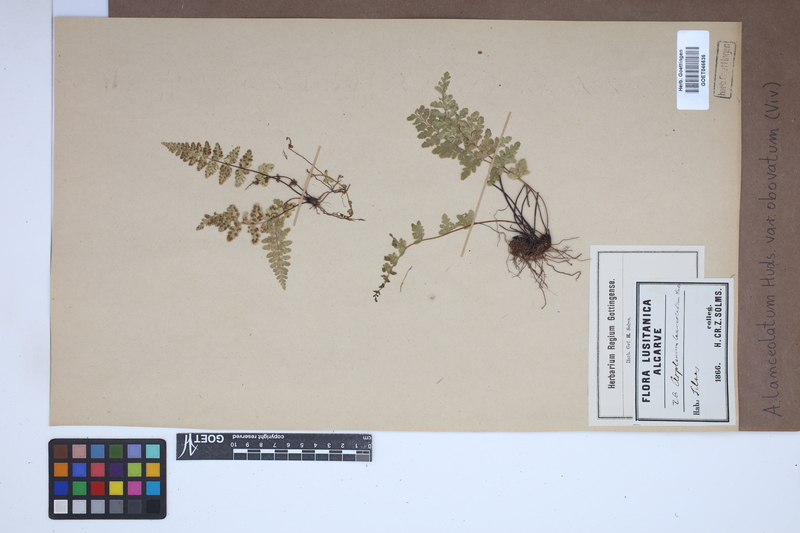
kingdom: Plantae
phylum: Tracheophyta
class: Polypodiopsida
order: Polypodiales
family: Aspleniaceae
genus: Asplenium
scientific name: Asplenium obovatum
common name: Lanceolate spleenwort
